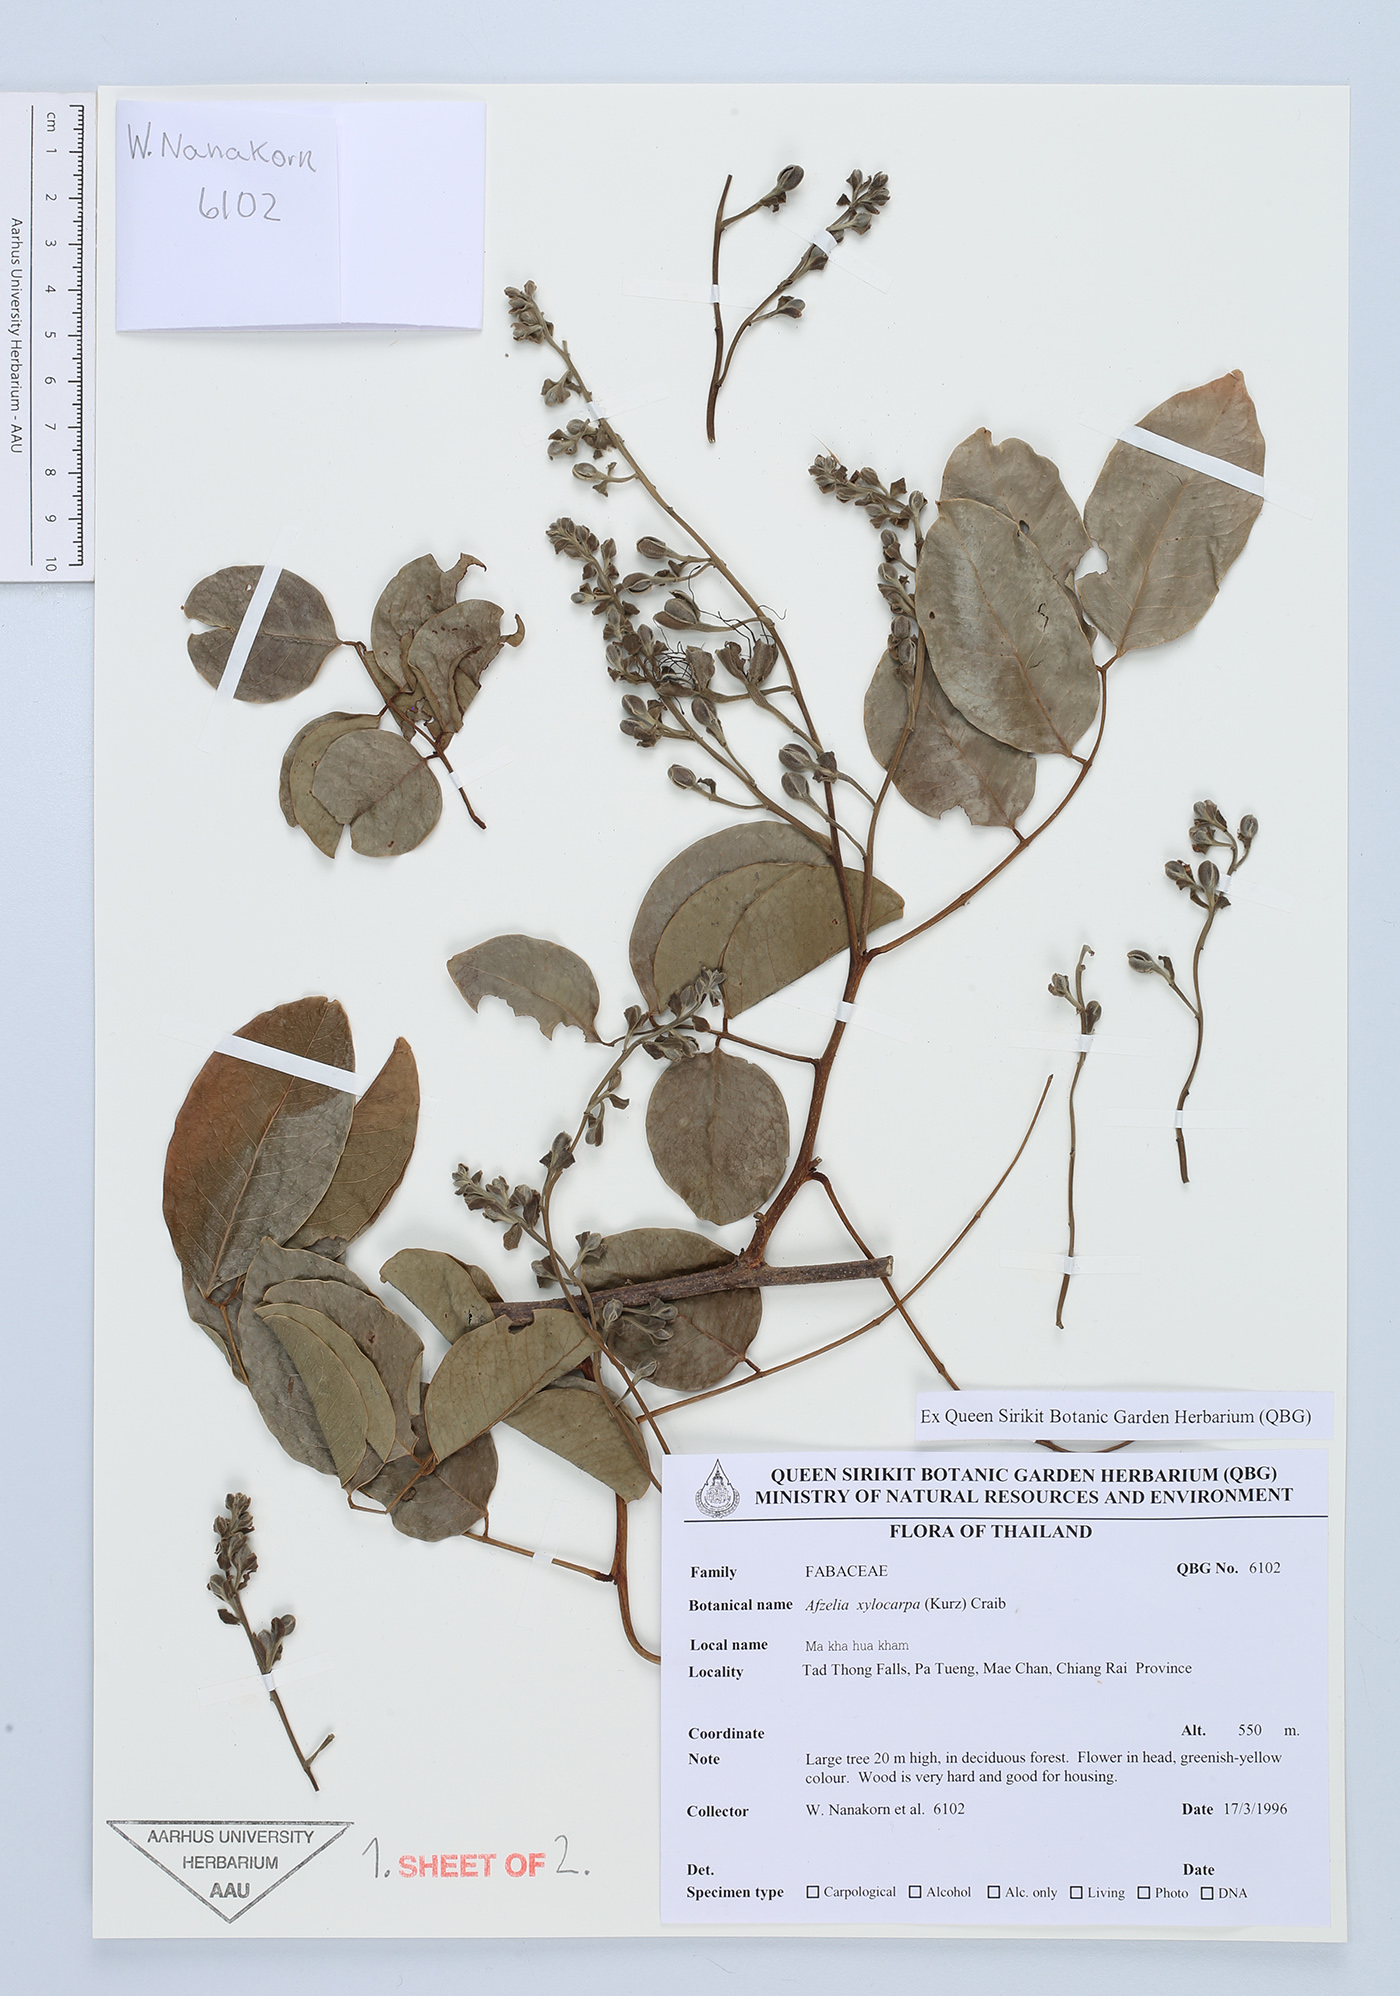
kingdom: Plantae
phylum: Tracheophyta
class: Magnoliopsida
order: Fabales
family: Fabaceae
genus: Afzelia
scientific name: Afzelia xylocarpa
